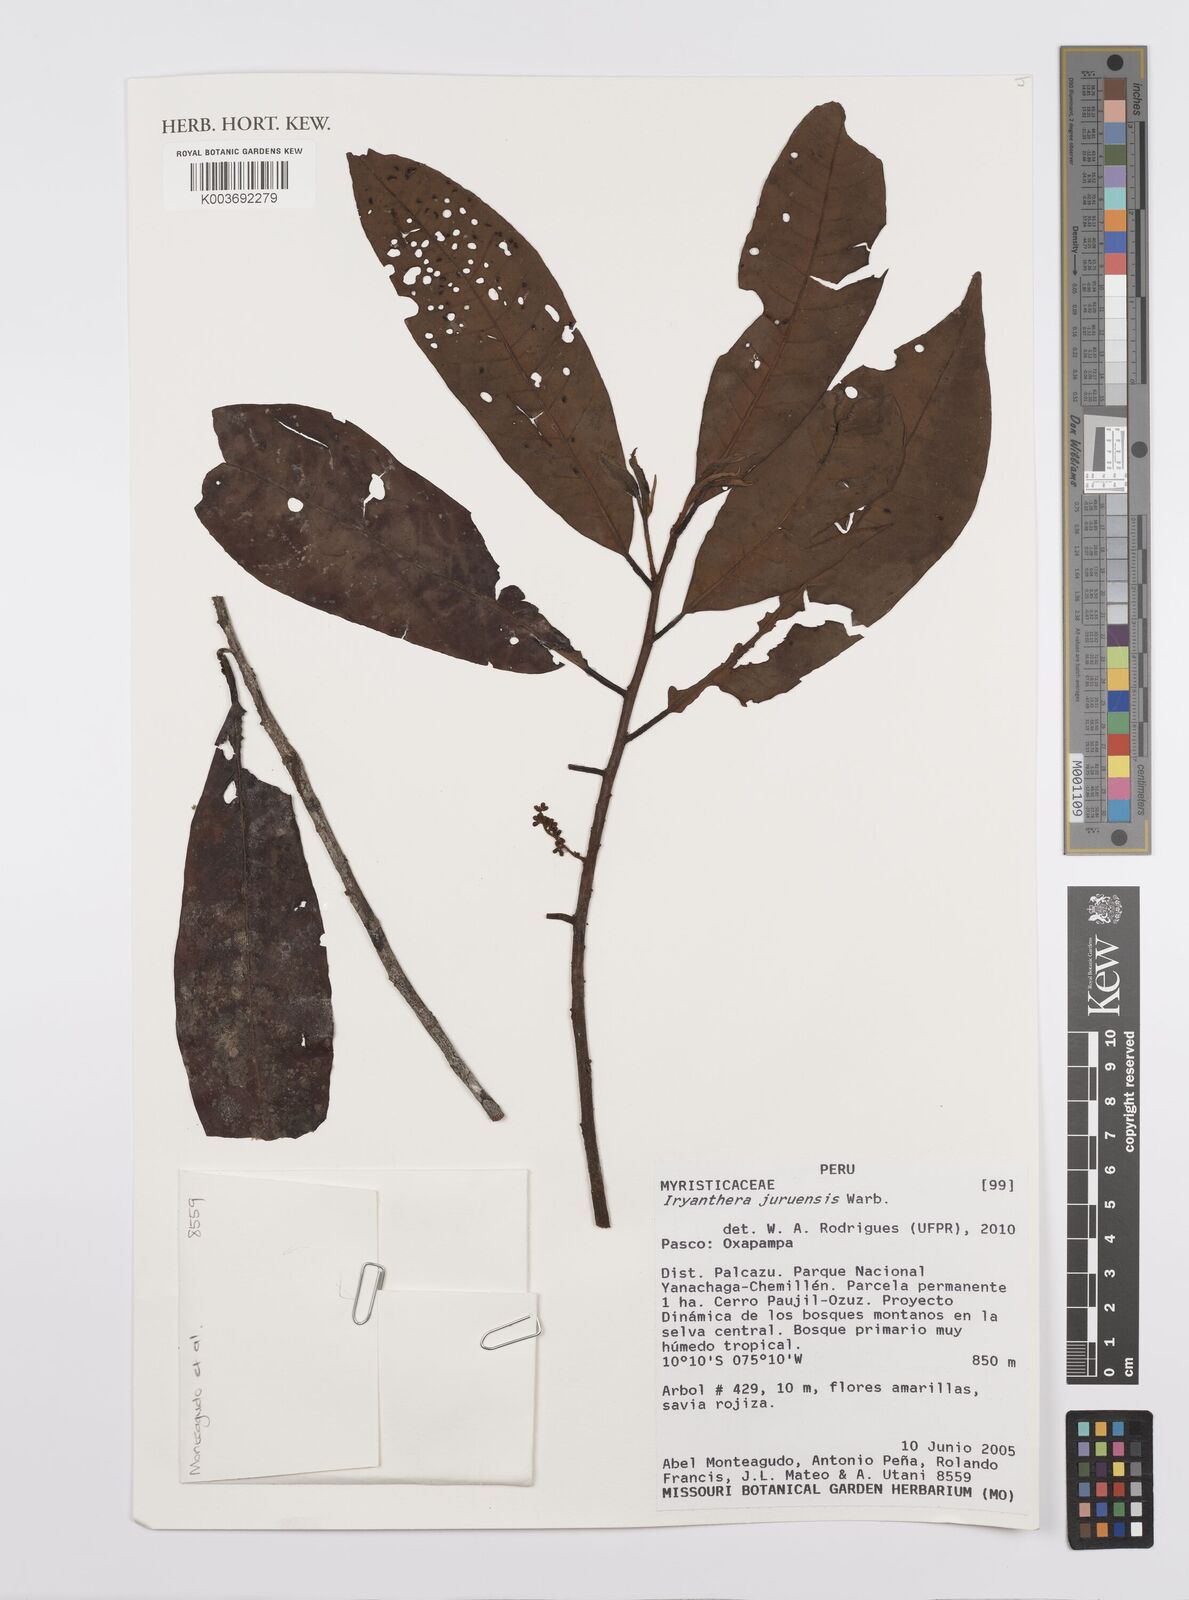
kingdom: Plantae
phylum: Tracheophyta
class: Magnoliopsida
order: Magnoliales
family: Myristicaceae
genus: Iryanthera
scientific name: Iryanthera juruensis
